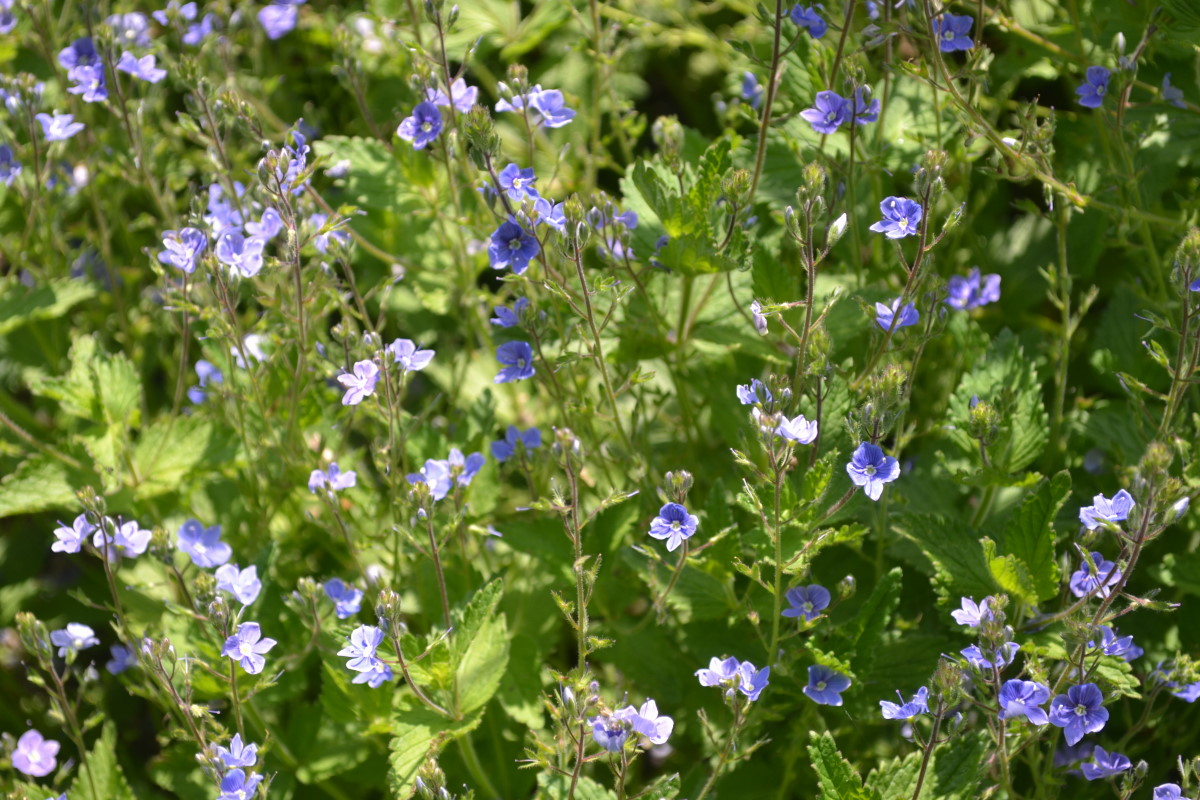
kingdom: Plantae
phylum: Tracheophyta
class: Magnoliopsida
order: Lamiales
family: Plantaginaceae
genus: Veronica
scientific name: Veronica chamaedrys
